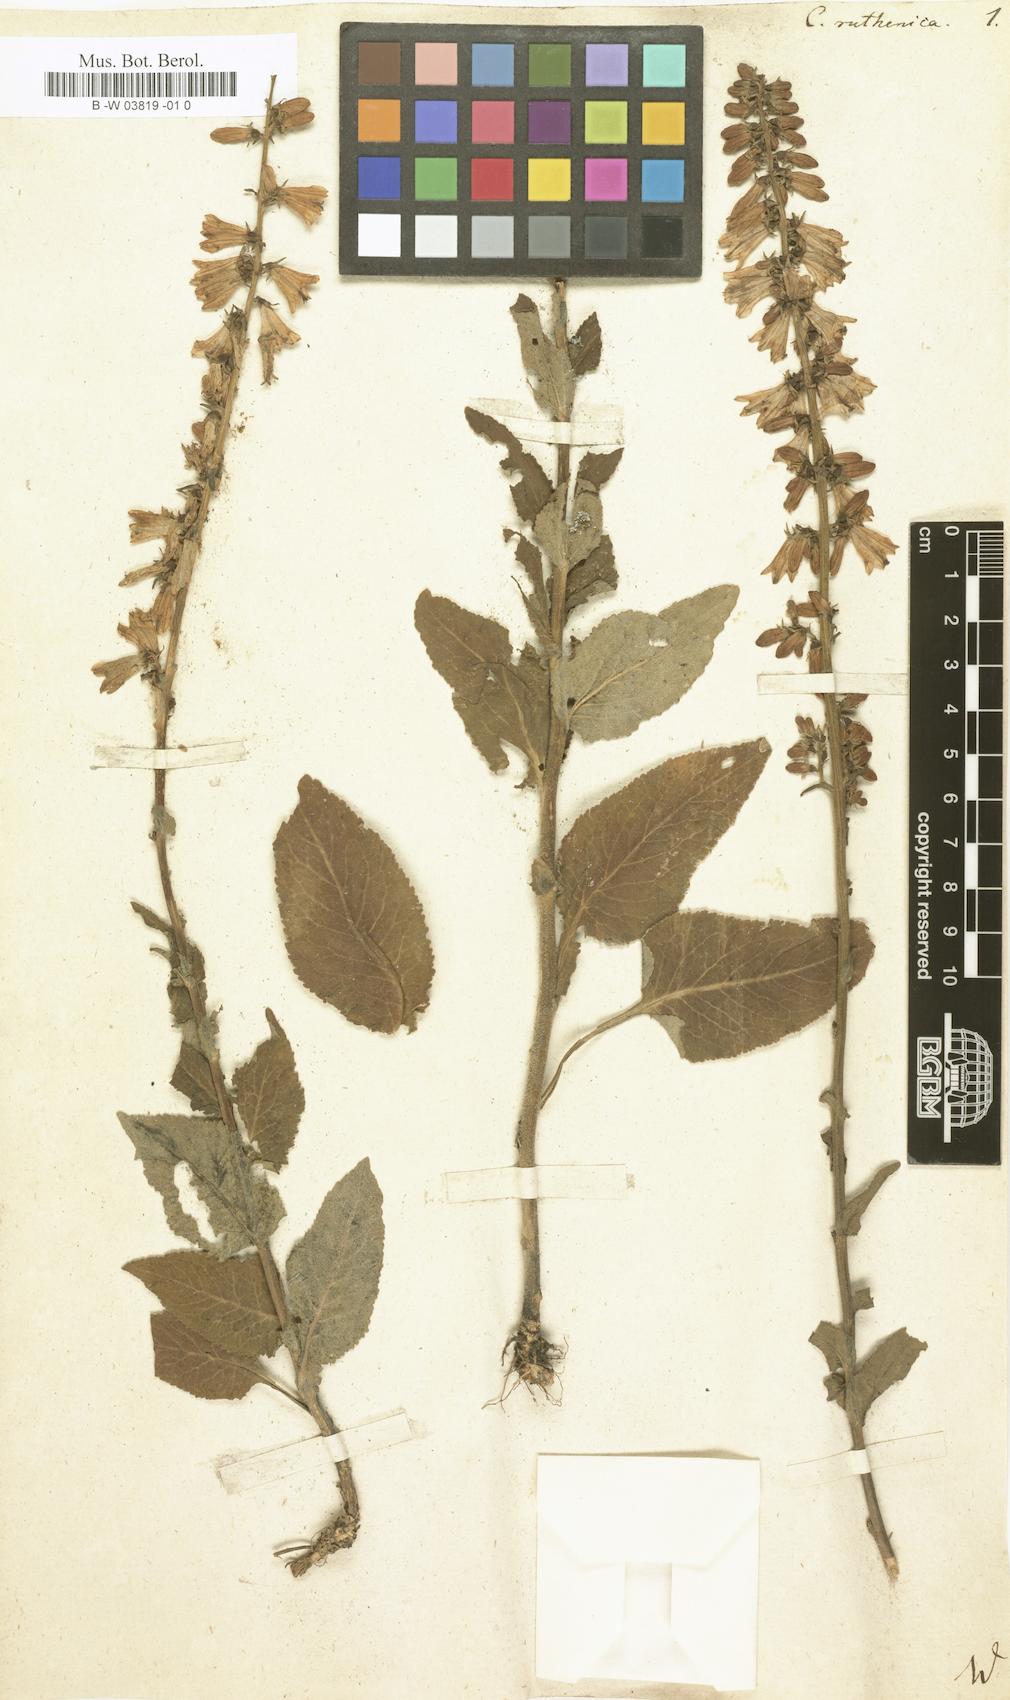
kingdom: Plantae
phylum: Tracheophyta
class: Magnoliopsida
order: Asterales
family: Campanulaceae
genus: Campanula
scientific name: Campanula bononiensis
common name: Pale bellflower
